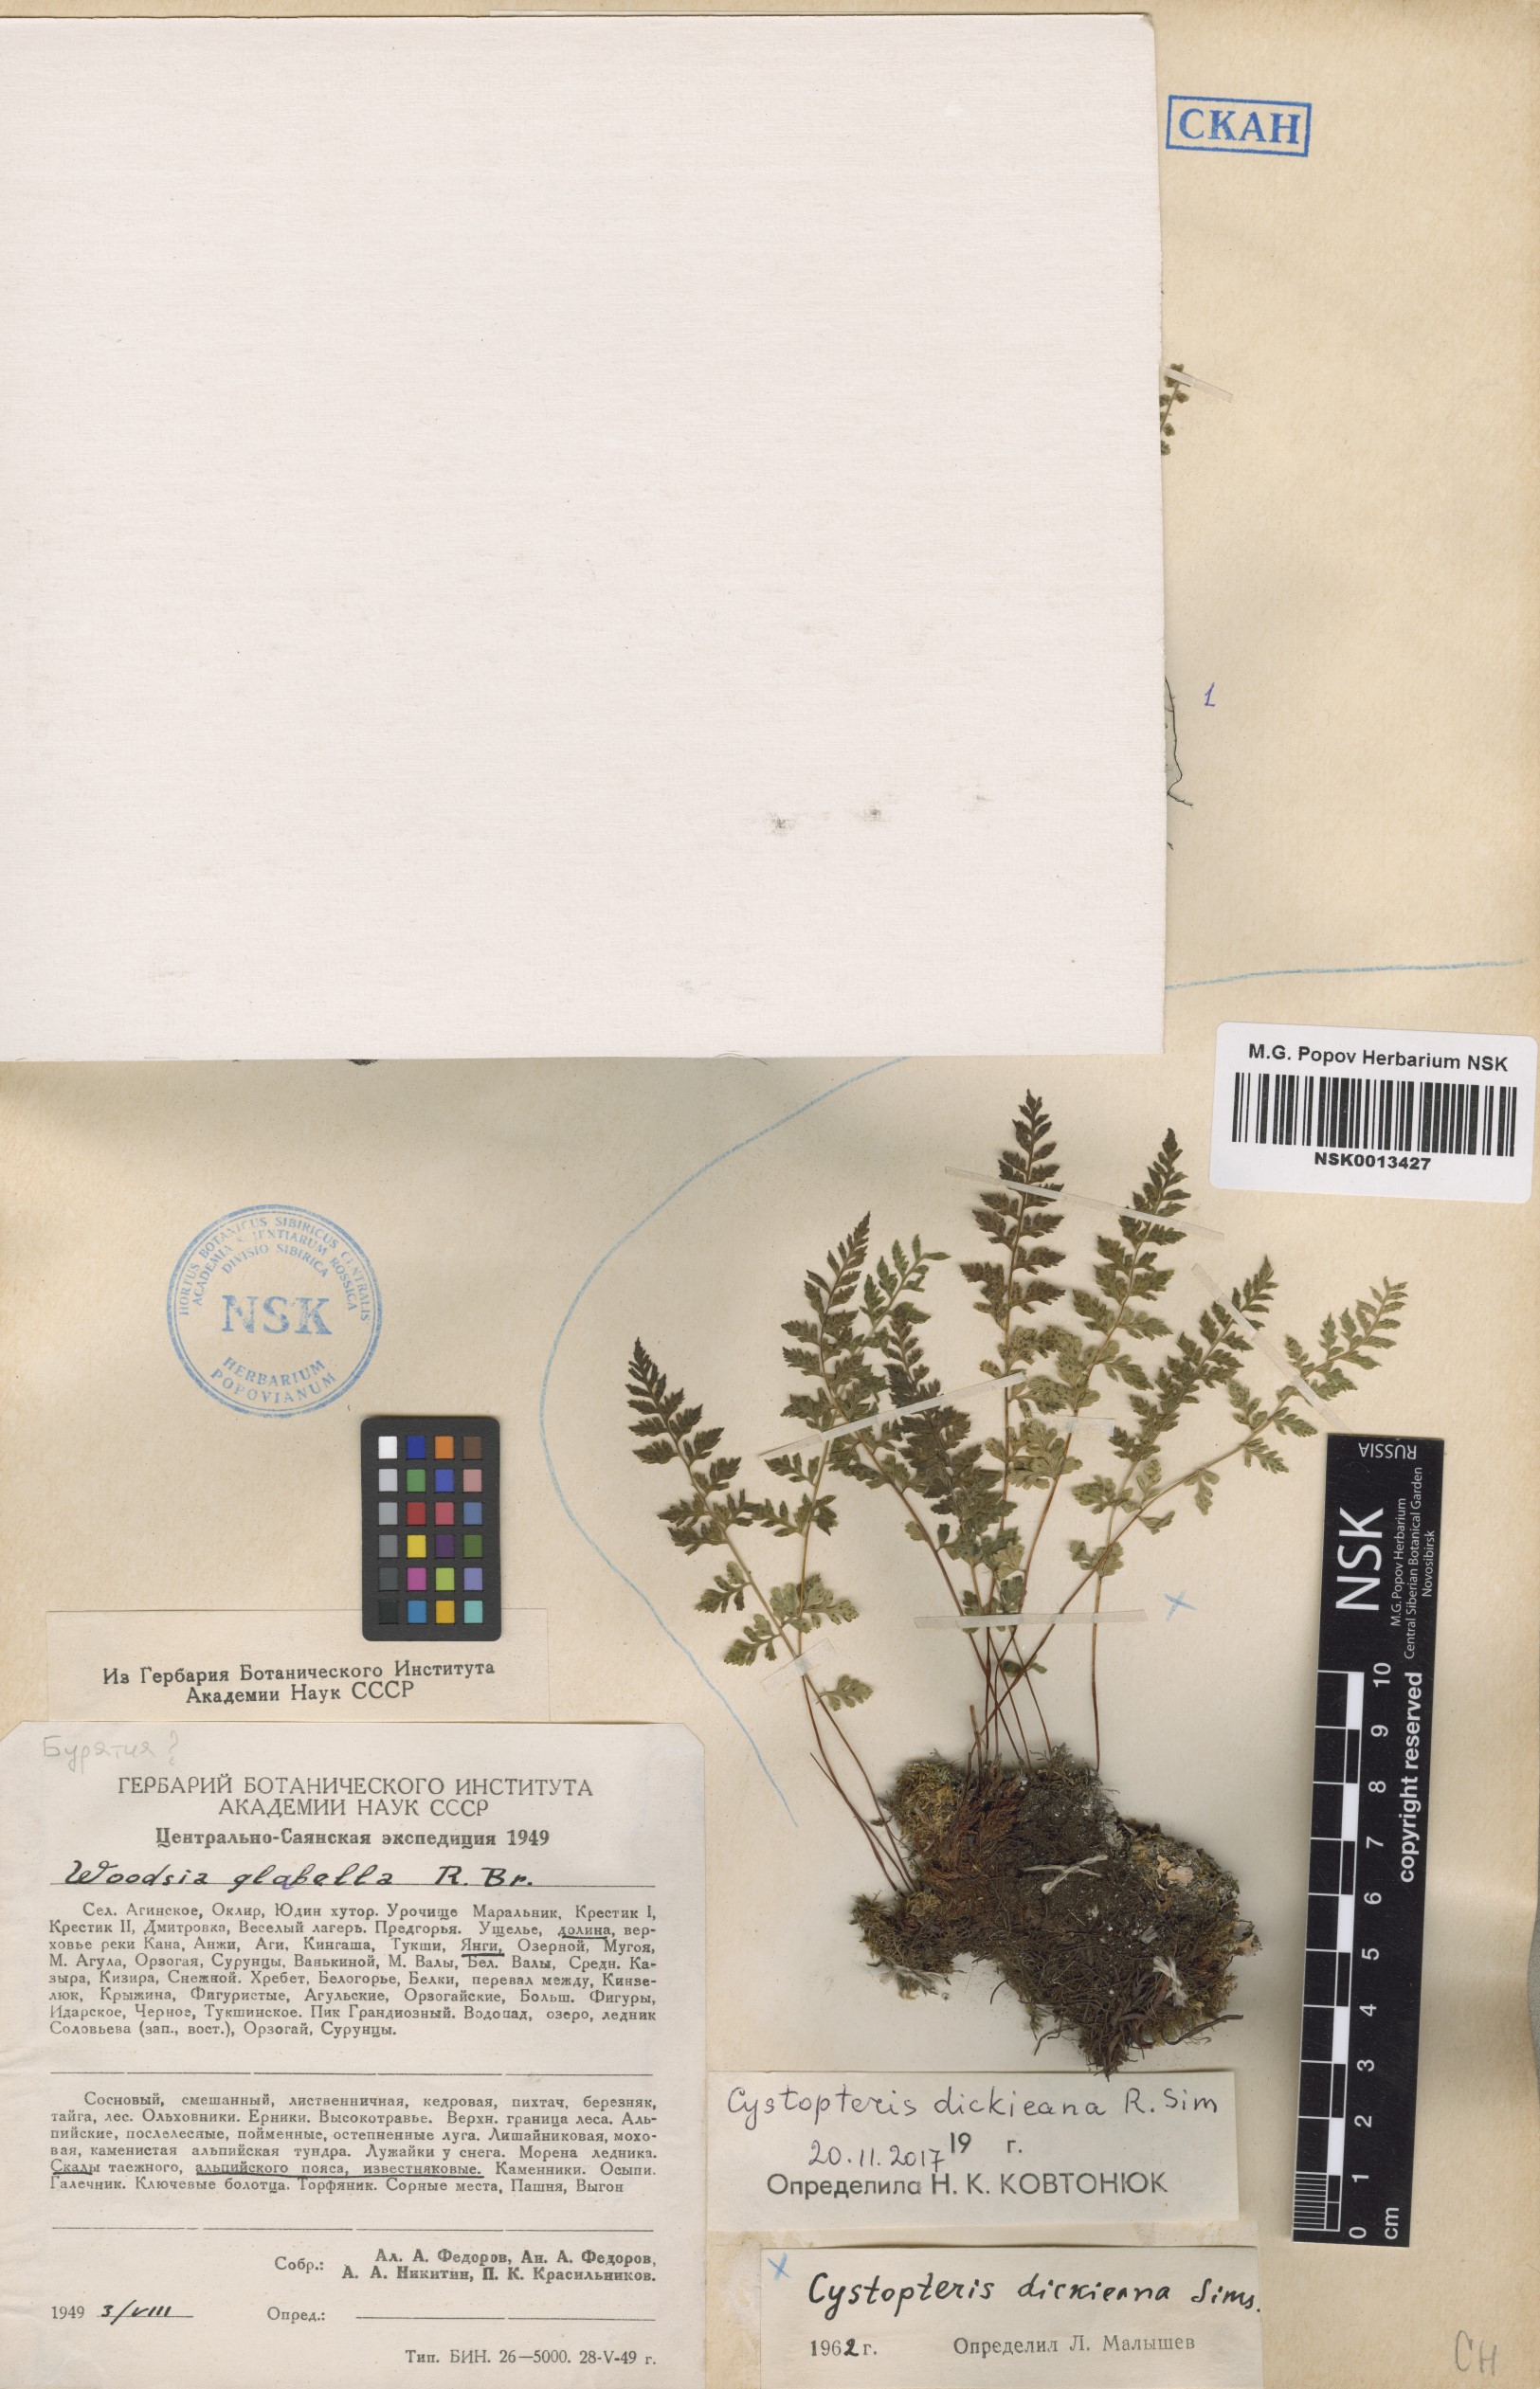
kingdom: Plantae
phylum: Tracheophyta
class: Polypodiopsida
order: Polypodiales
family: Cystopteridaceae
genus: Cystopteris
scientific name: Cystopteris dickieana
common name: Dickie's bladder-fern
